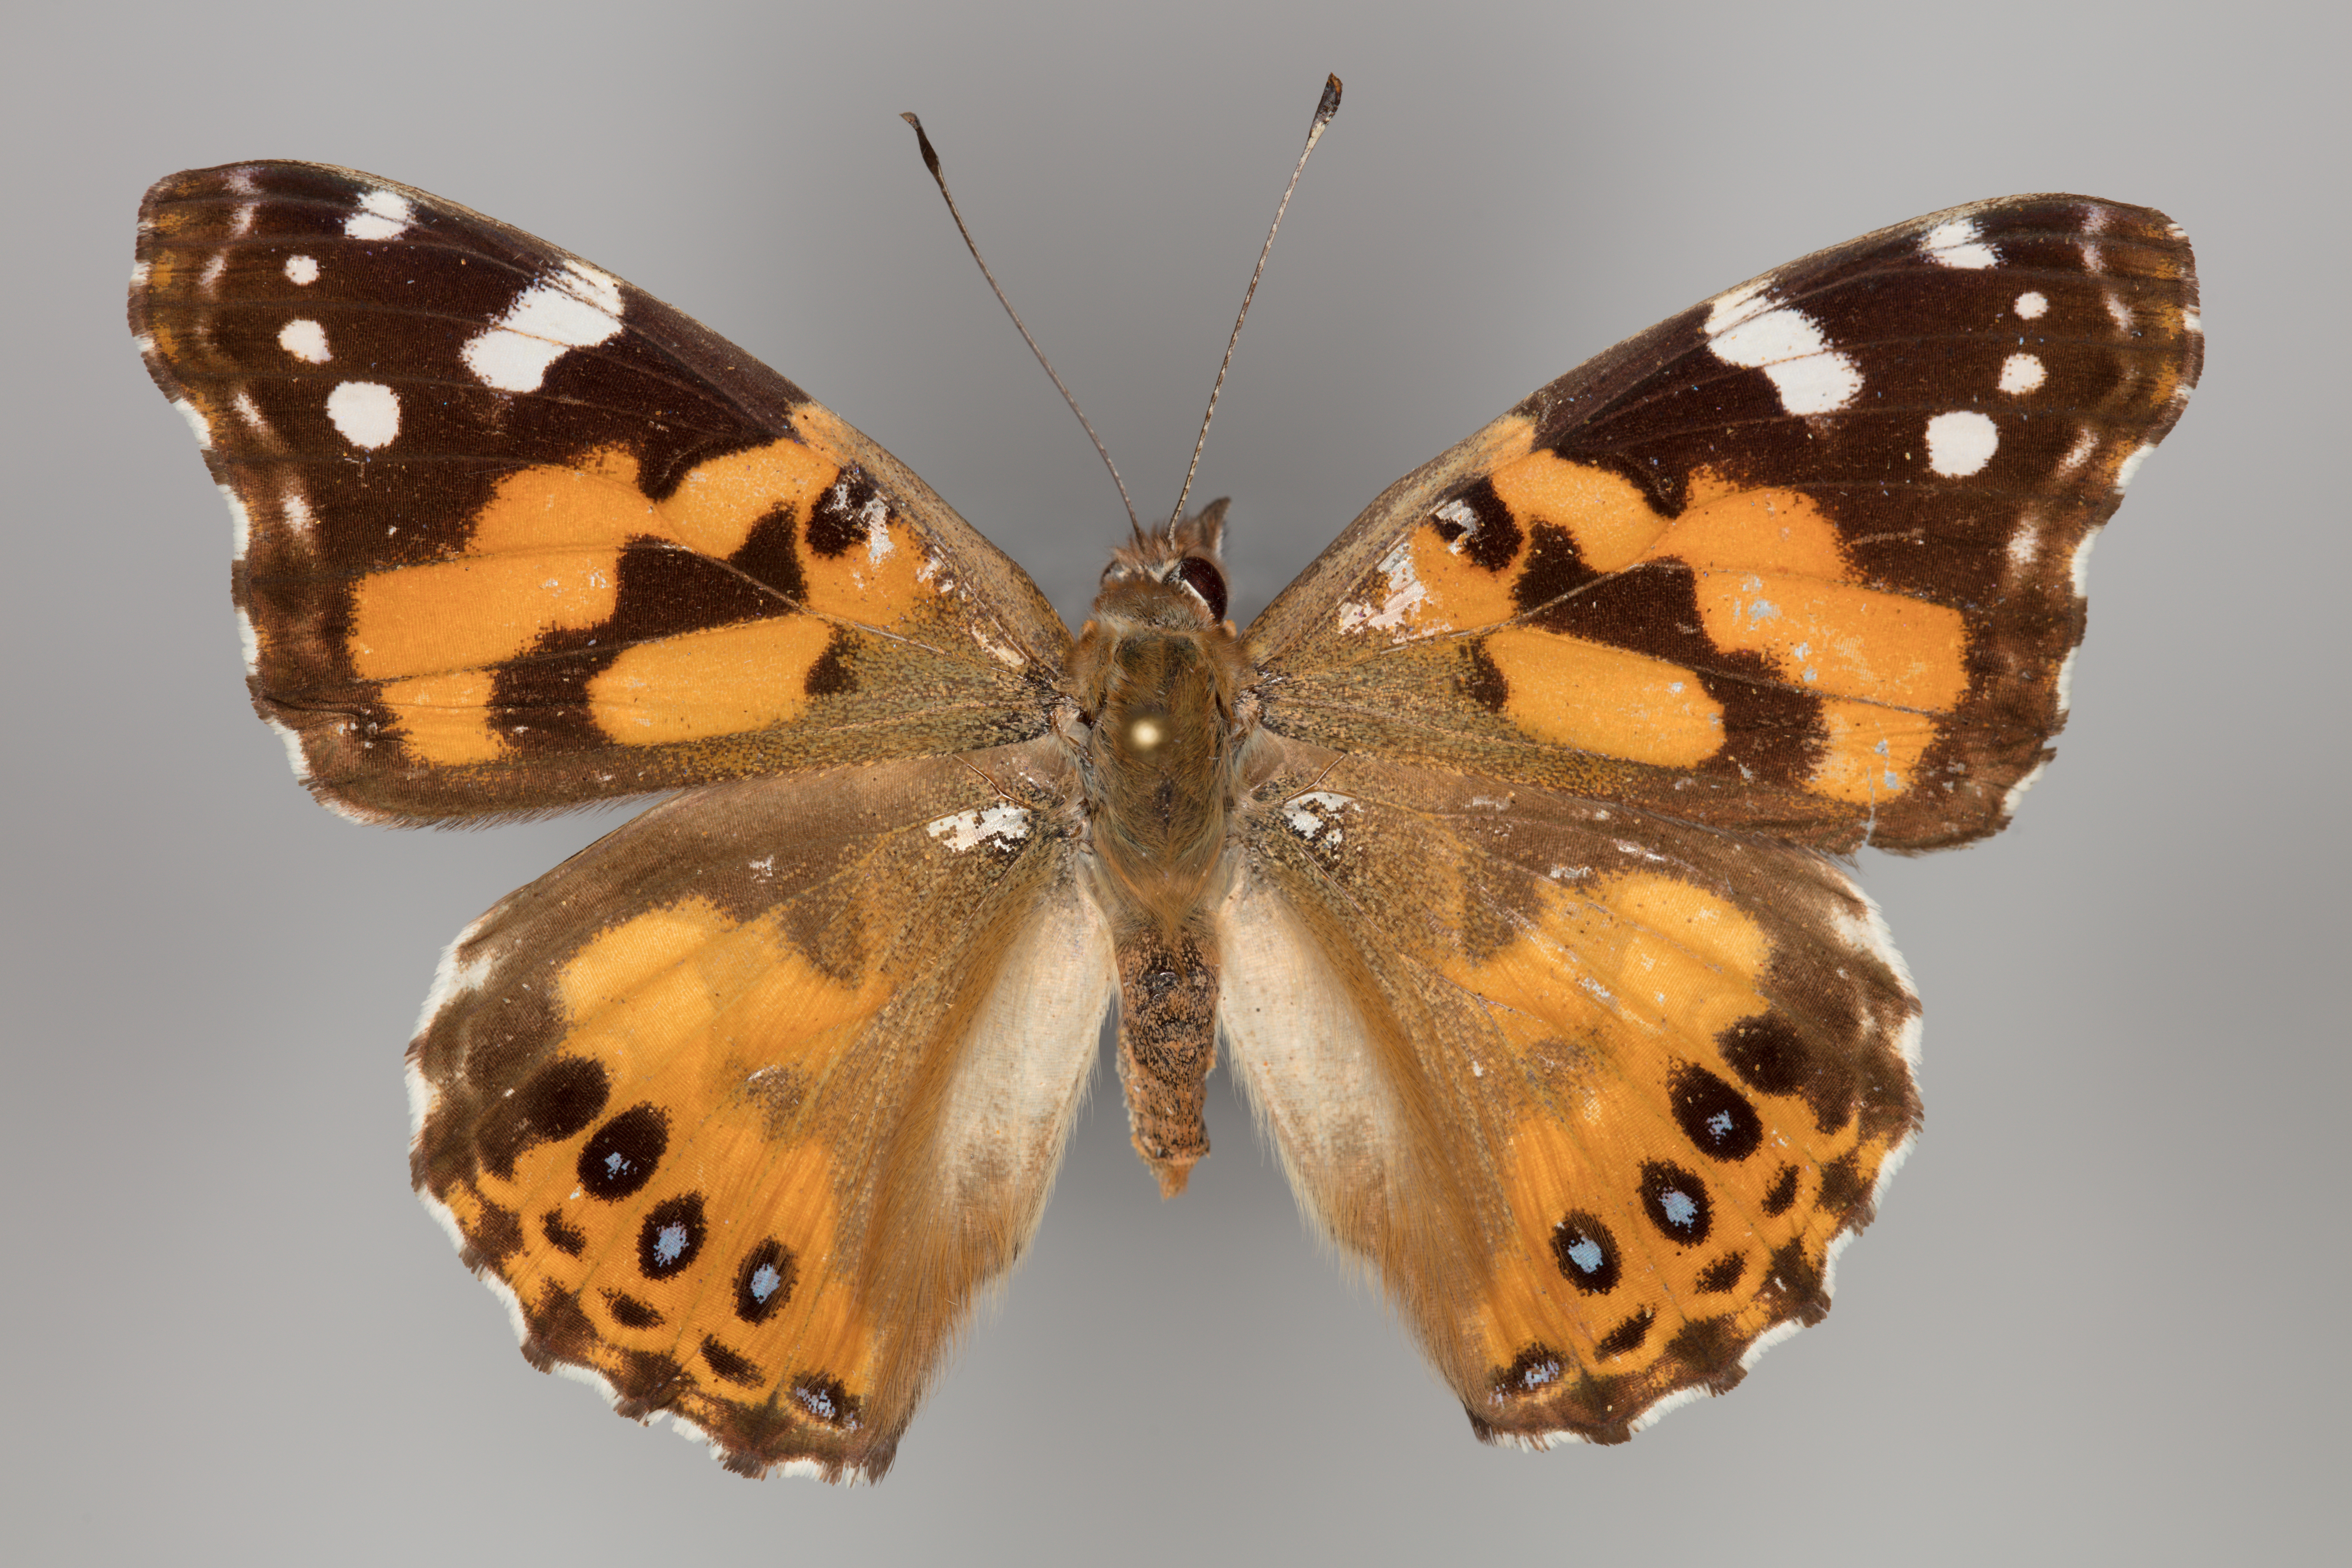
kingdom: Animalia
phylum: Arthropoda
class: Insecta
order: Lepidoptera
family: Nymphalidae
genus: Vanessa
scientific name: Vanessa kershawi
